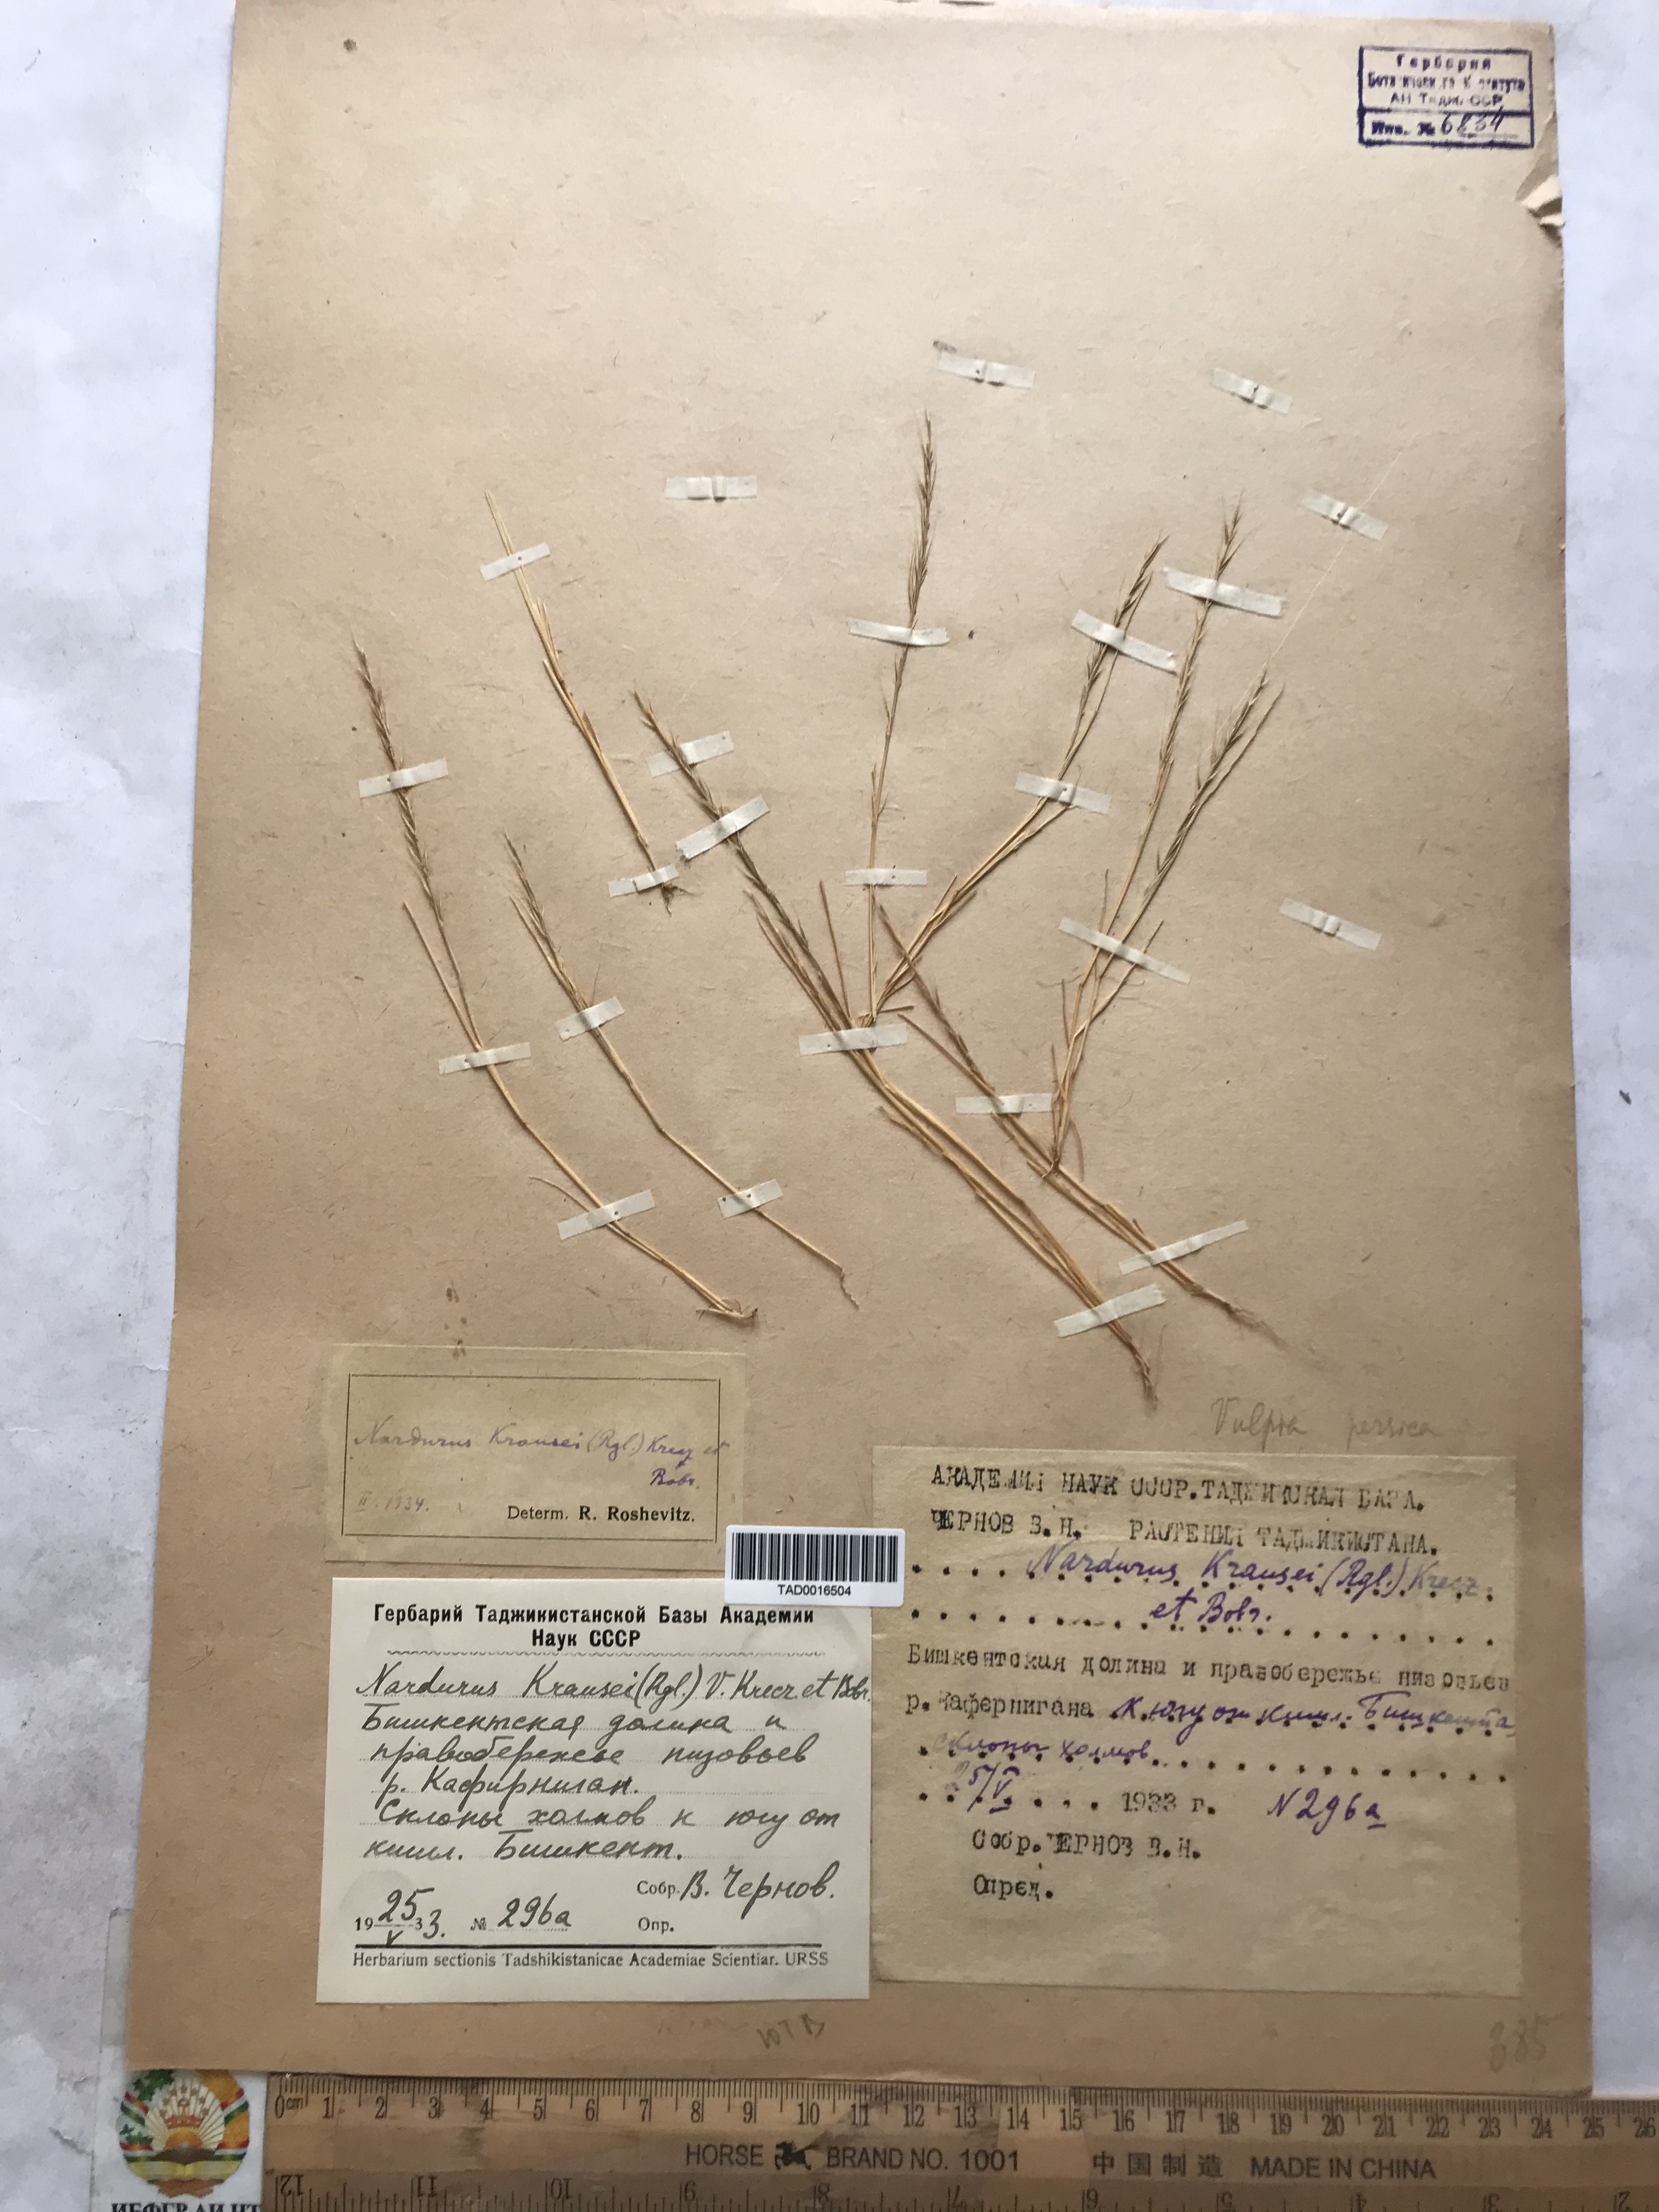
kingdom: Plantae
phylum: Tracheophyta
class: Liliopsida
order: Poales
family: Poaceae
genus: Festuca
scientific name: Festuca Vulpia persica
